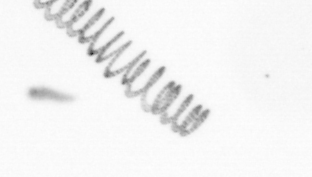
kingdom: Chromista
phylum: Ochrophyta
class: Bacillariophyceae
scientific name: Bacillariophyceae
